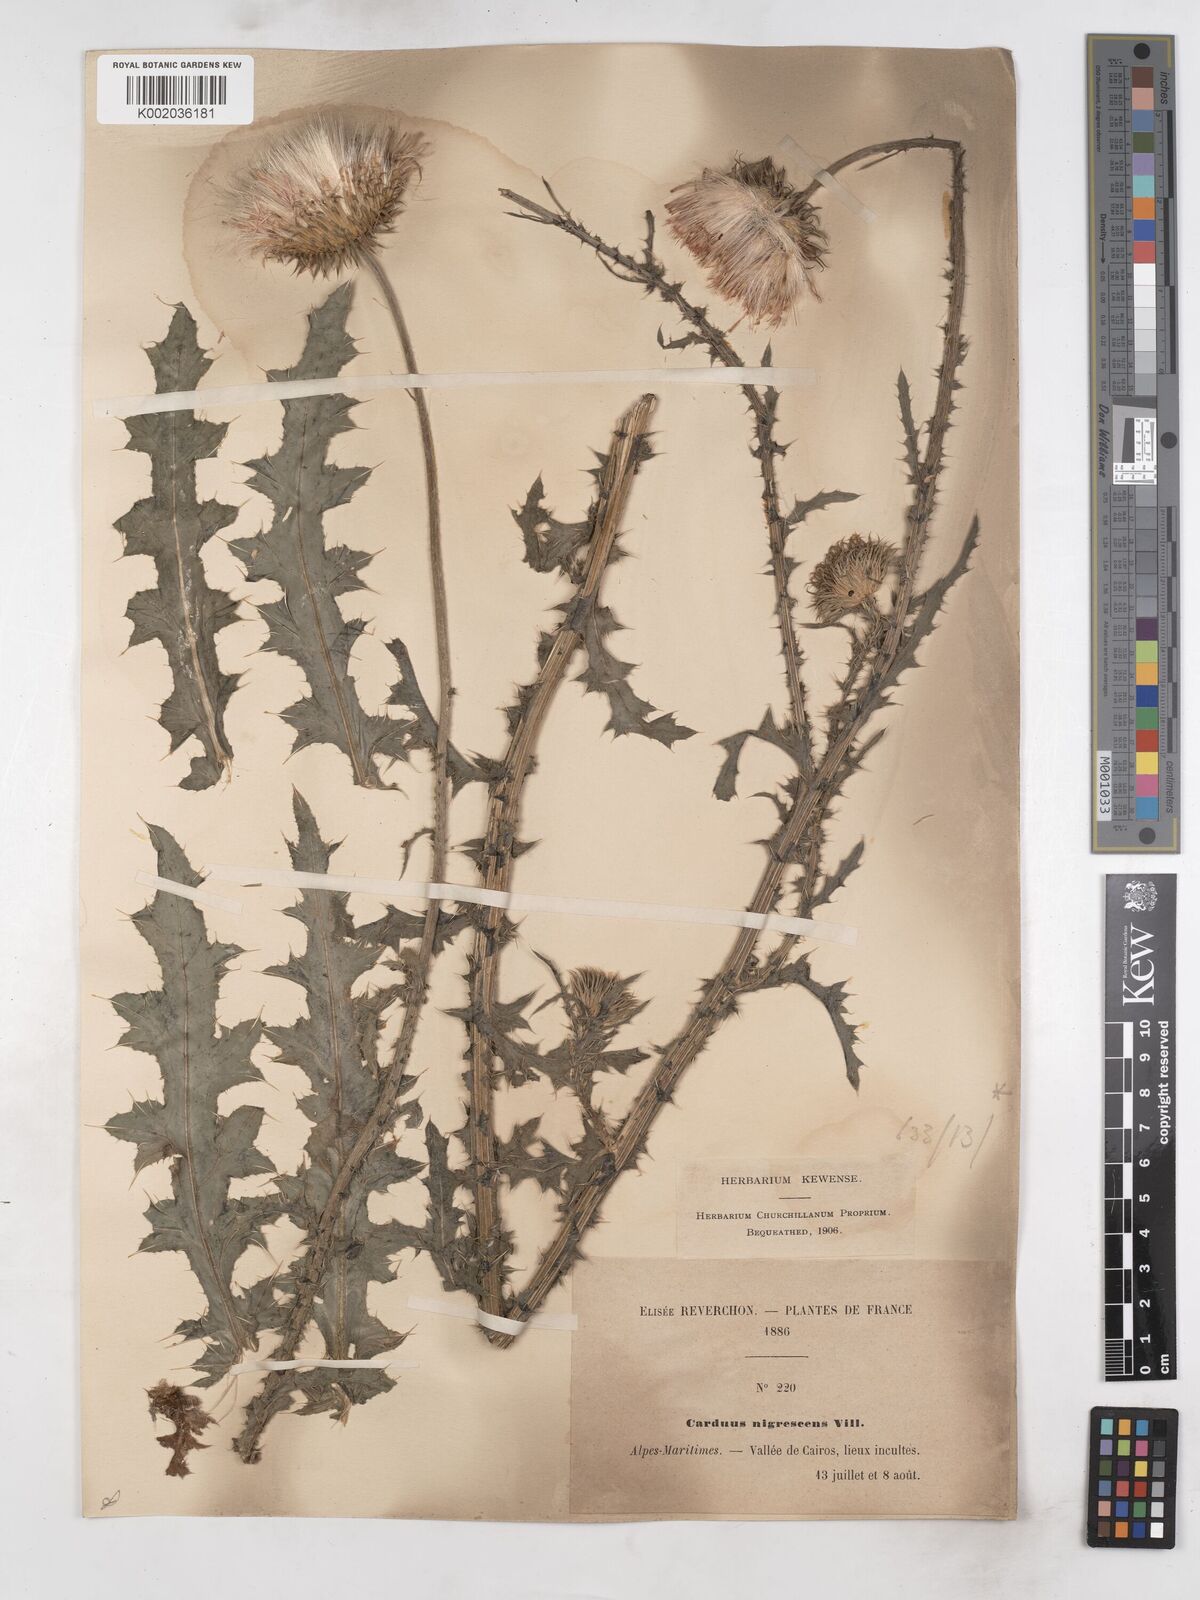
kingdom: Plantae
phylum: Tracheophyta
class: Magnoliopsida
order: Asterales
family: Asteraceae
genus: Carduus
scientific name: Carduus nigrescens
